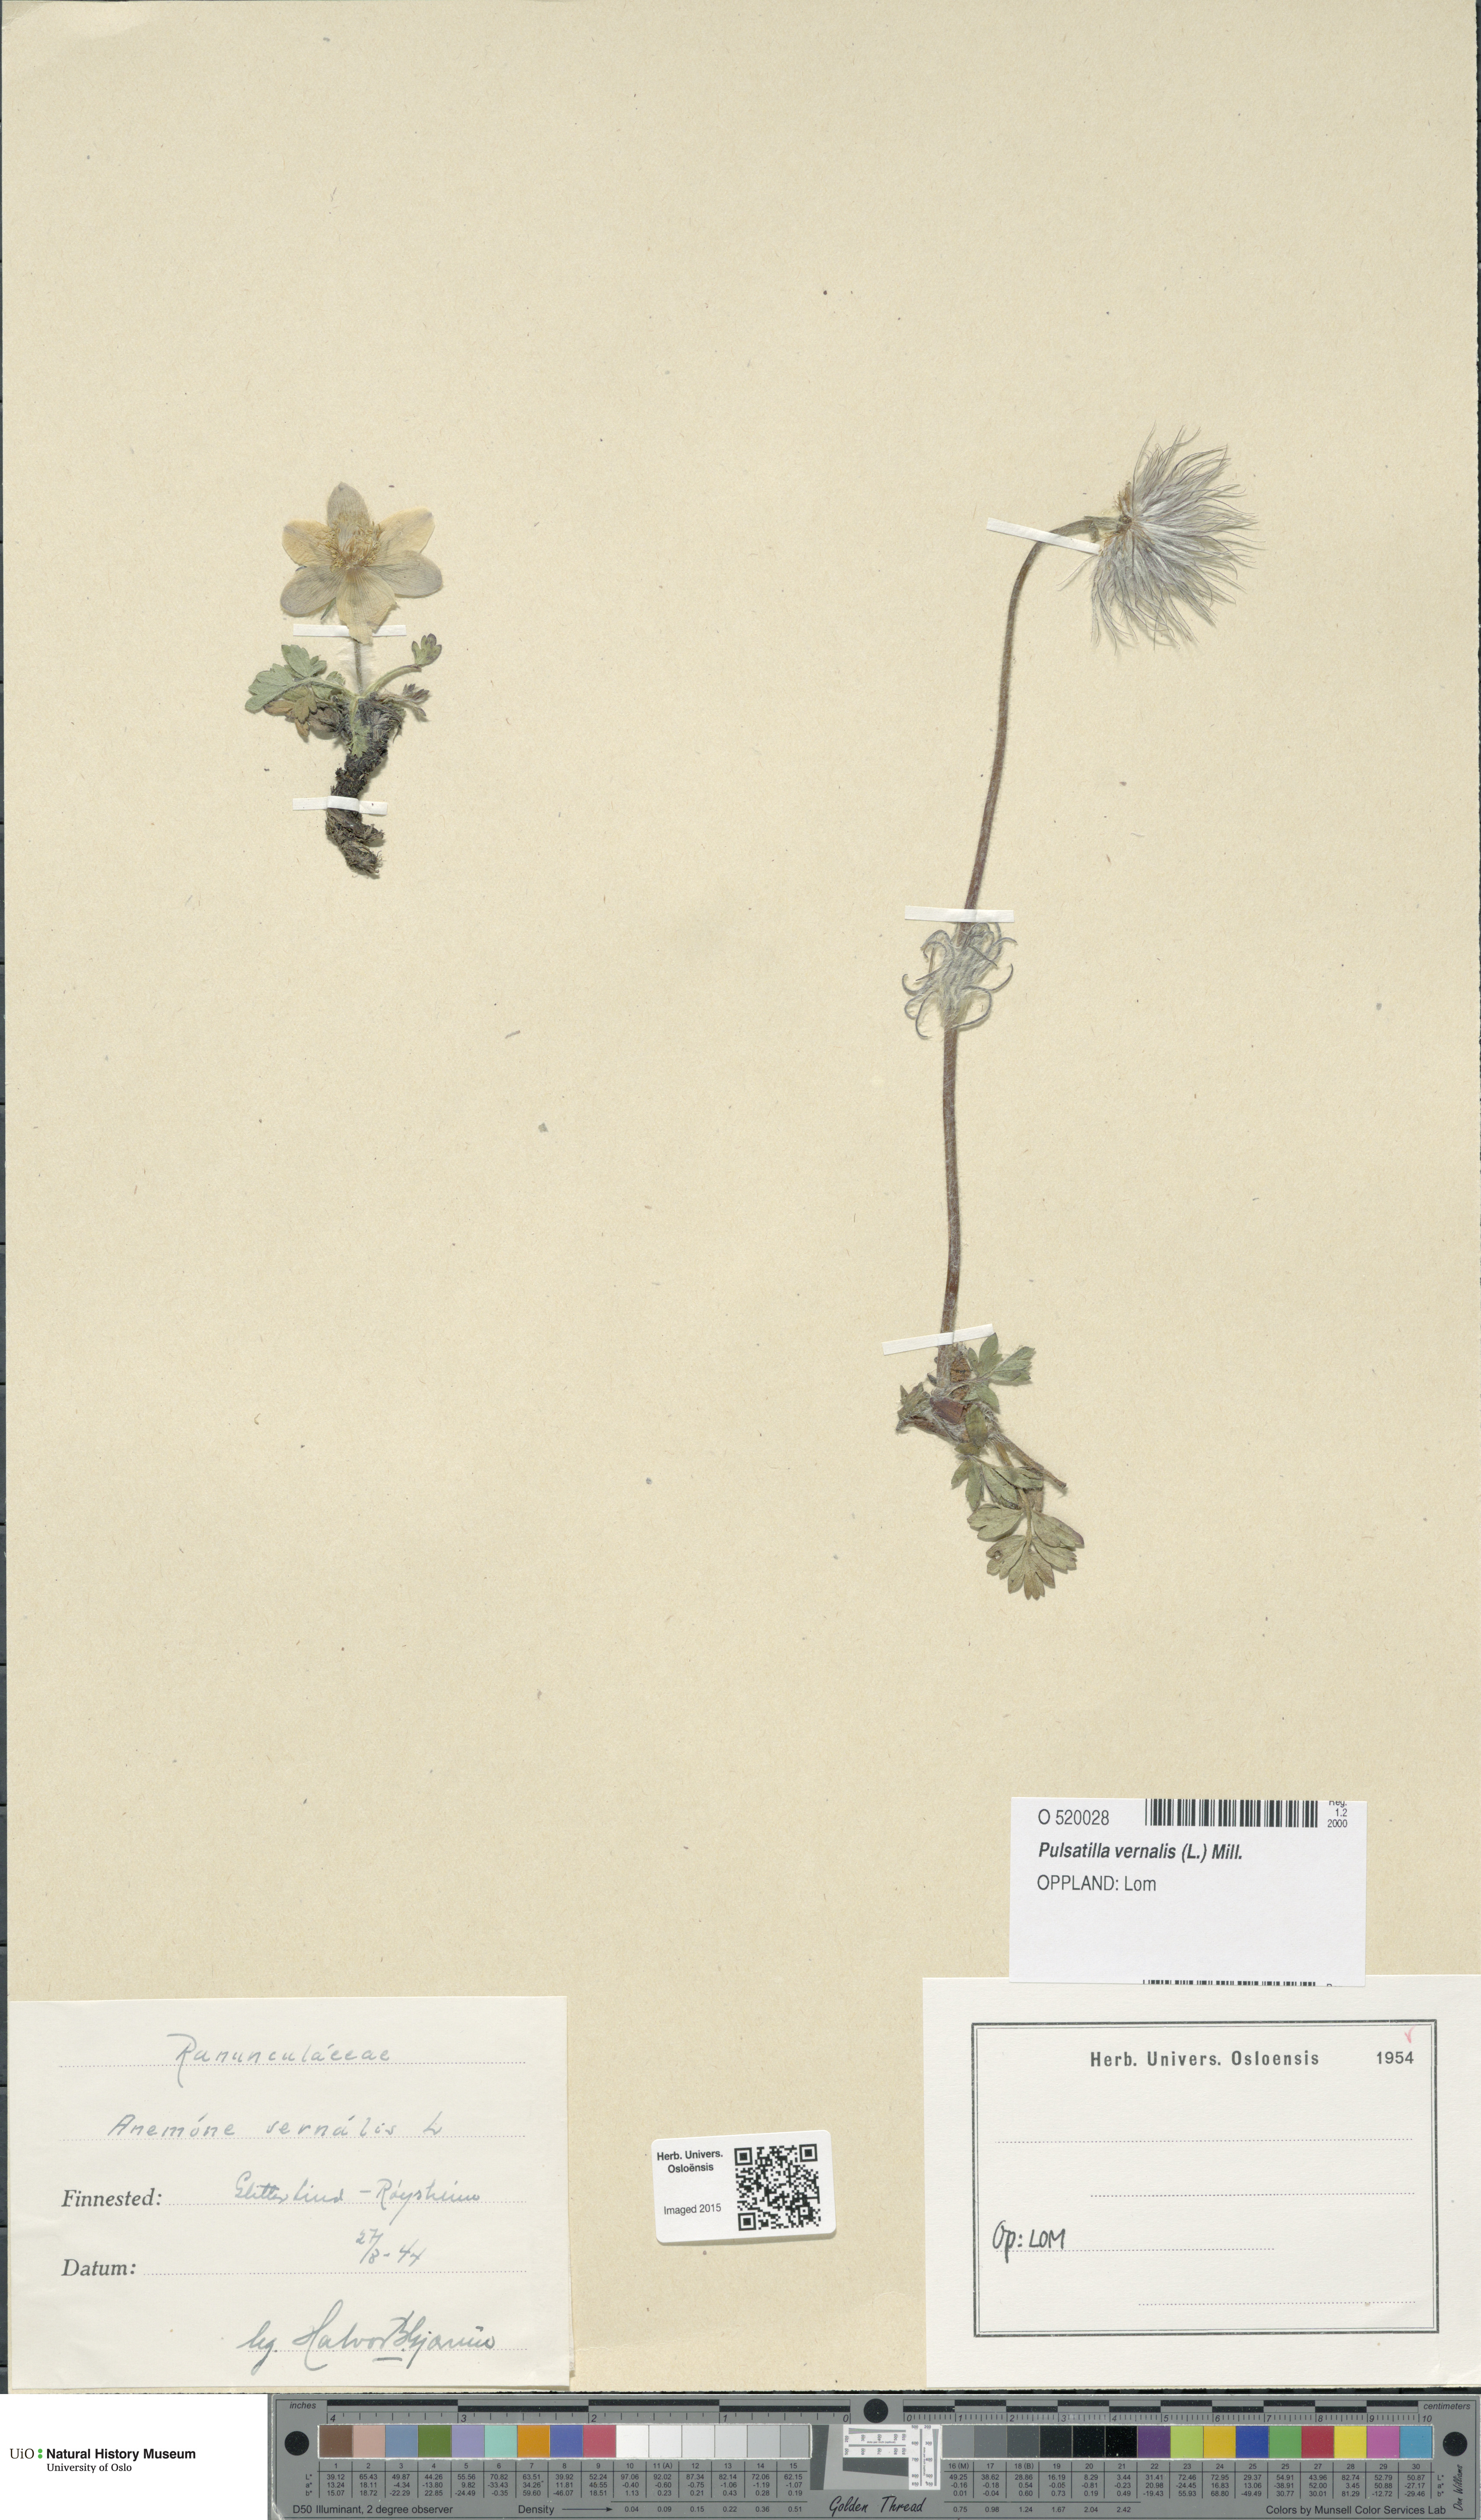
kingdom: Plantae
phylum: Tracheophyta
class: Magnoliopsida
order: Ranunculales
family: Ranunculaceae
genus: Pulsatilla
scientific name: Pulsatilla vernalis
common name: Spring pasque flower
